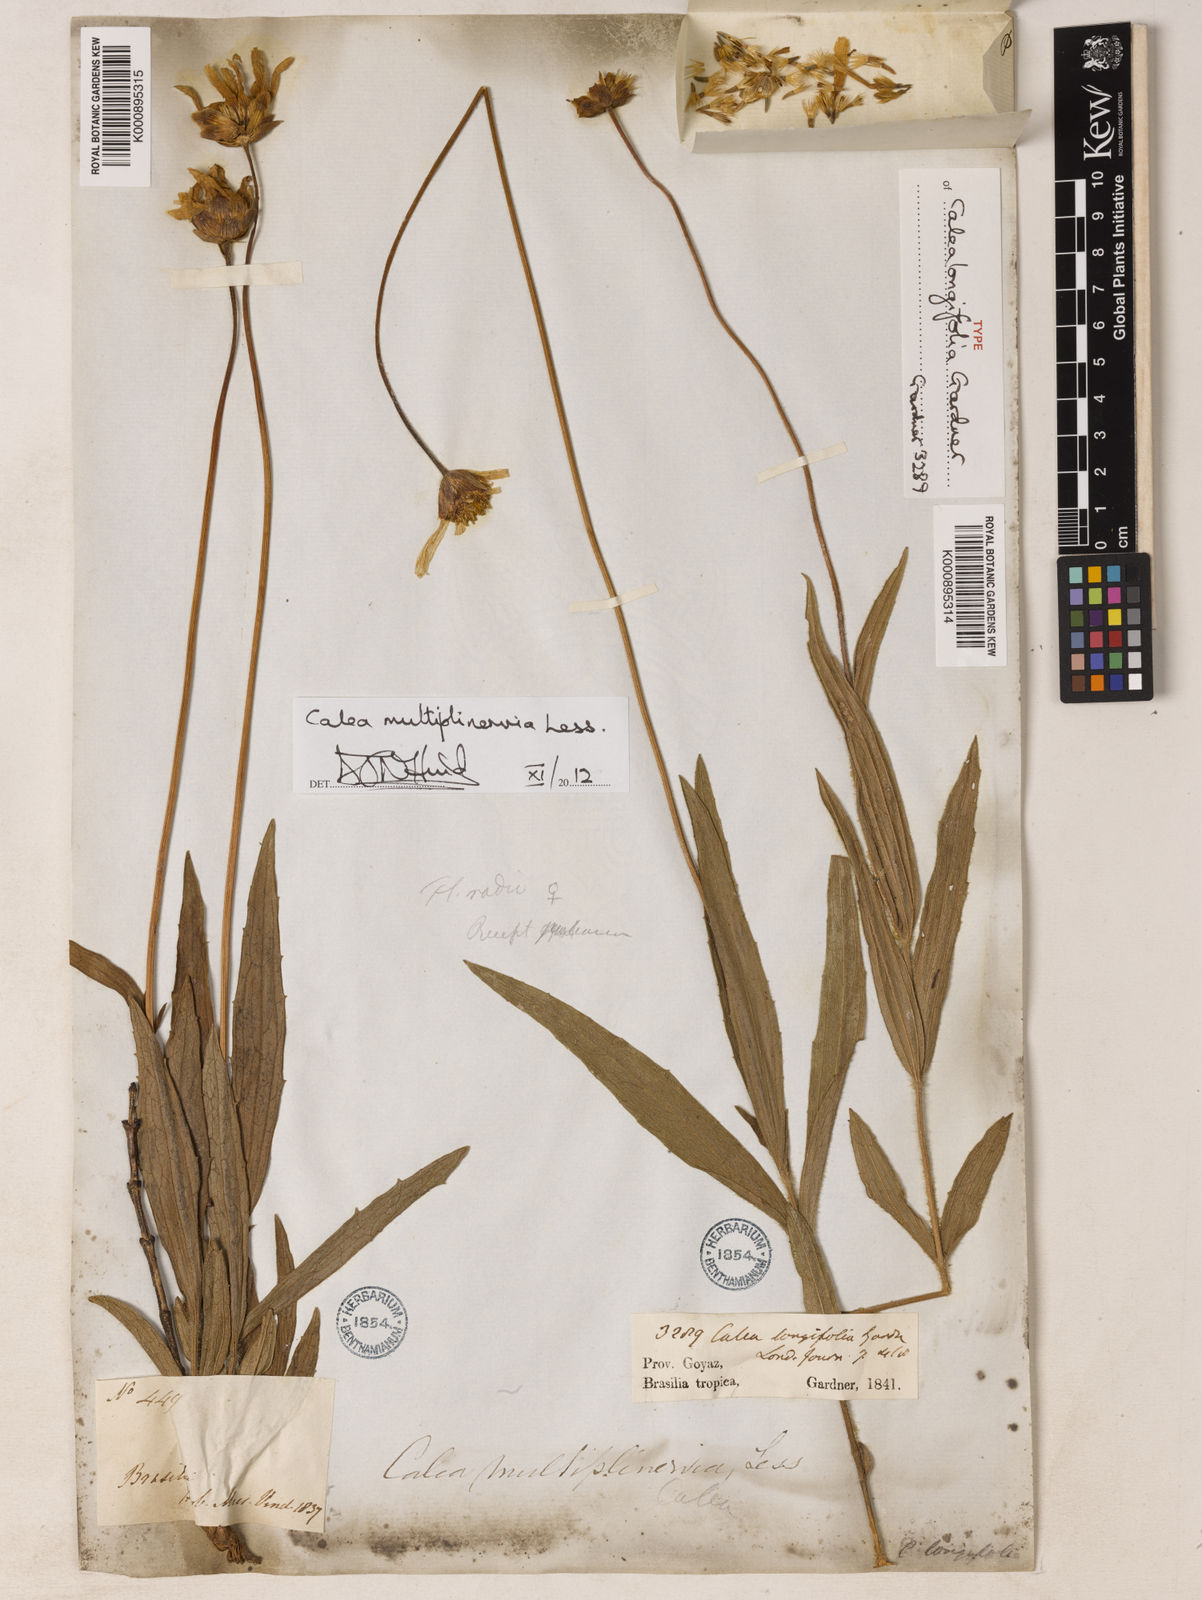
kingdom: Plantae
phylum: Tracheophyta
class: Magnoliopsida
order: Asterales
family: Asteraceae
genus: Calea
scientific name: Calea multiplinervia
